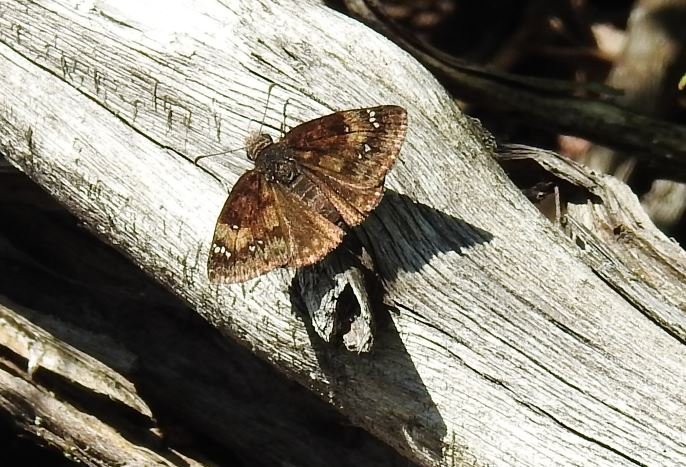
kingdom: Animalia
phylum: Arthropoda
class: Insecta
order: Lepidoptera
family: Hesperiidae
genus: Gesta
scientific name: Gesta
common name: Wild Indigo Duskywing
